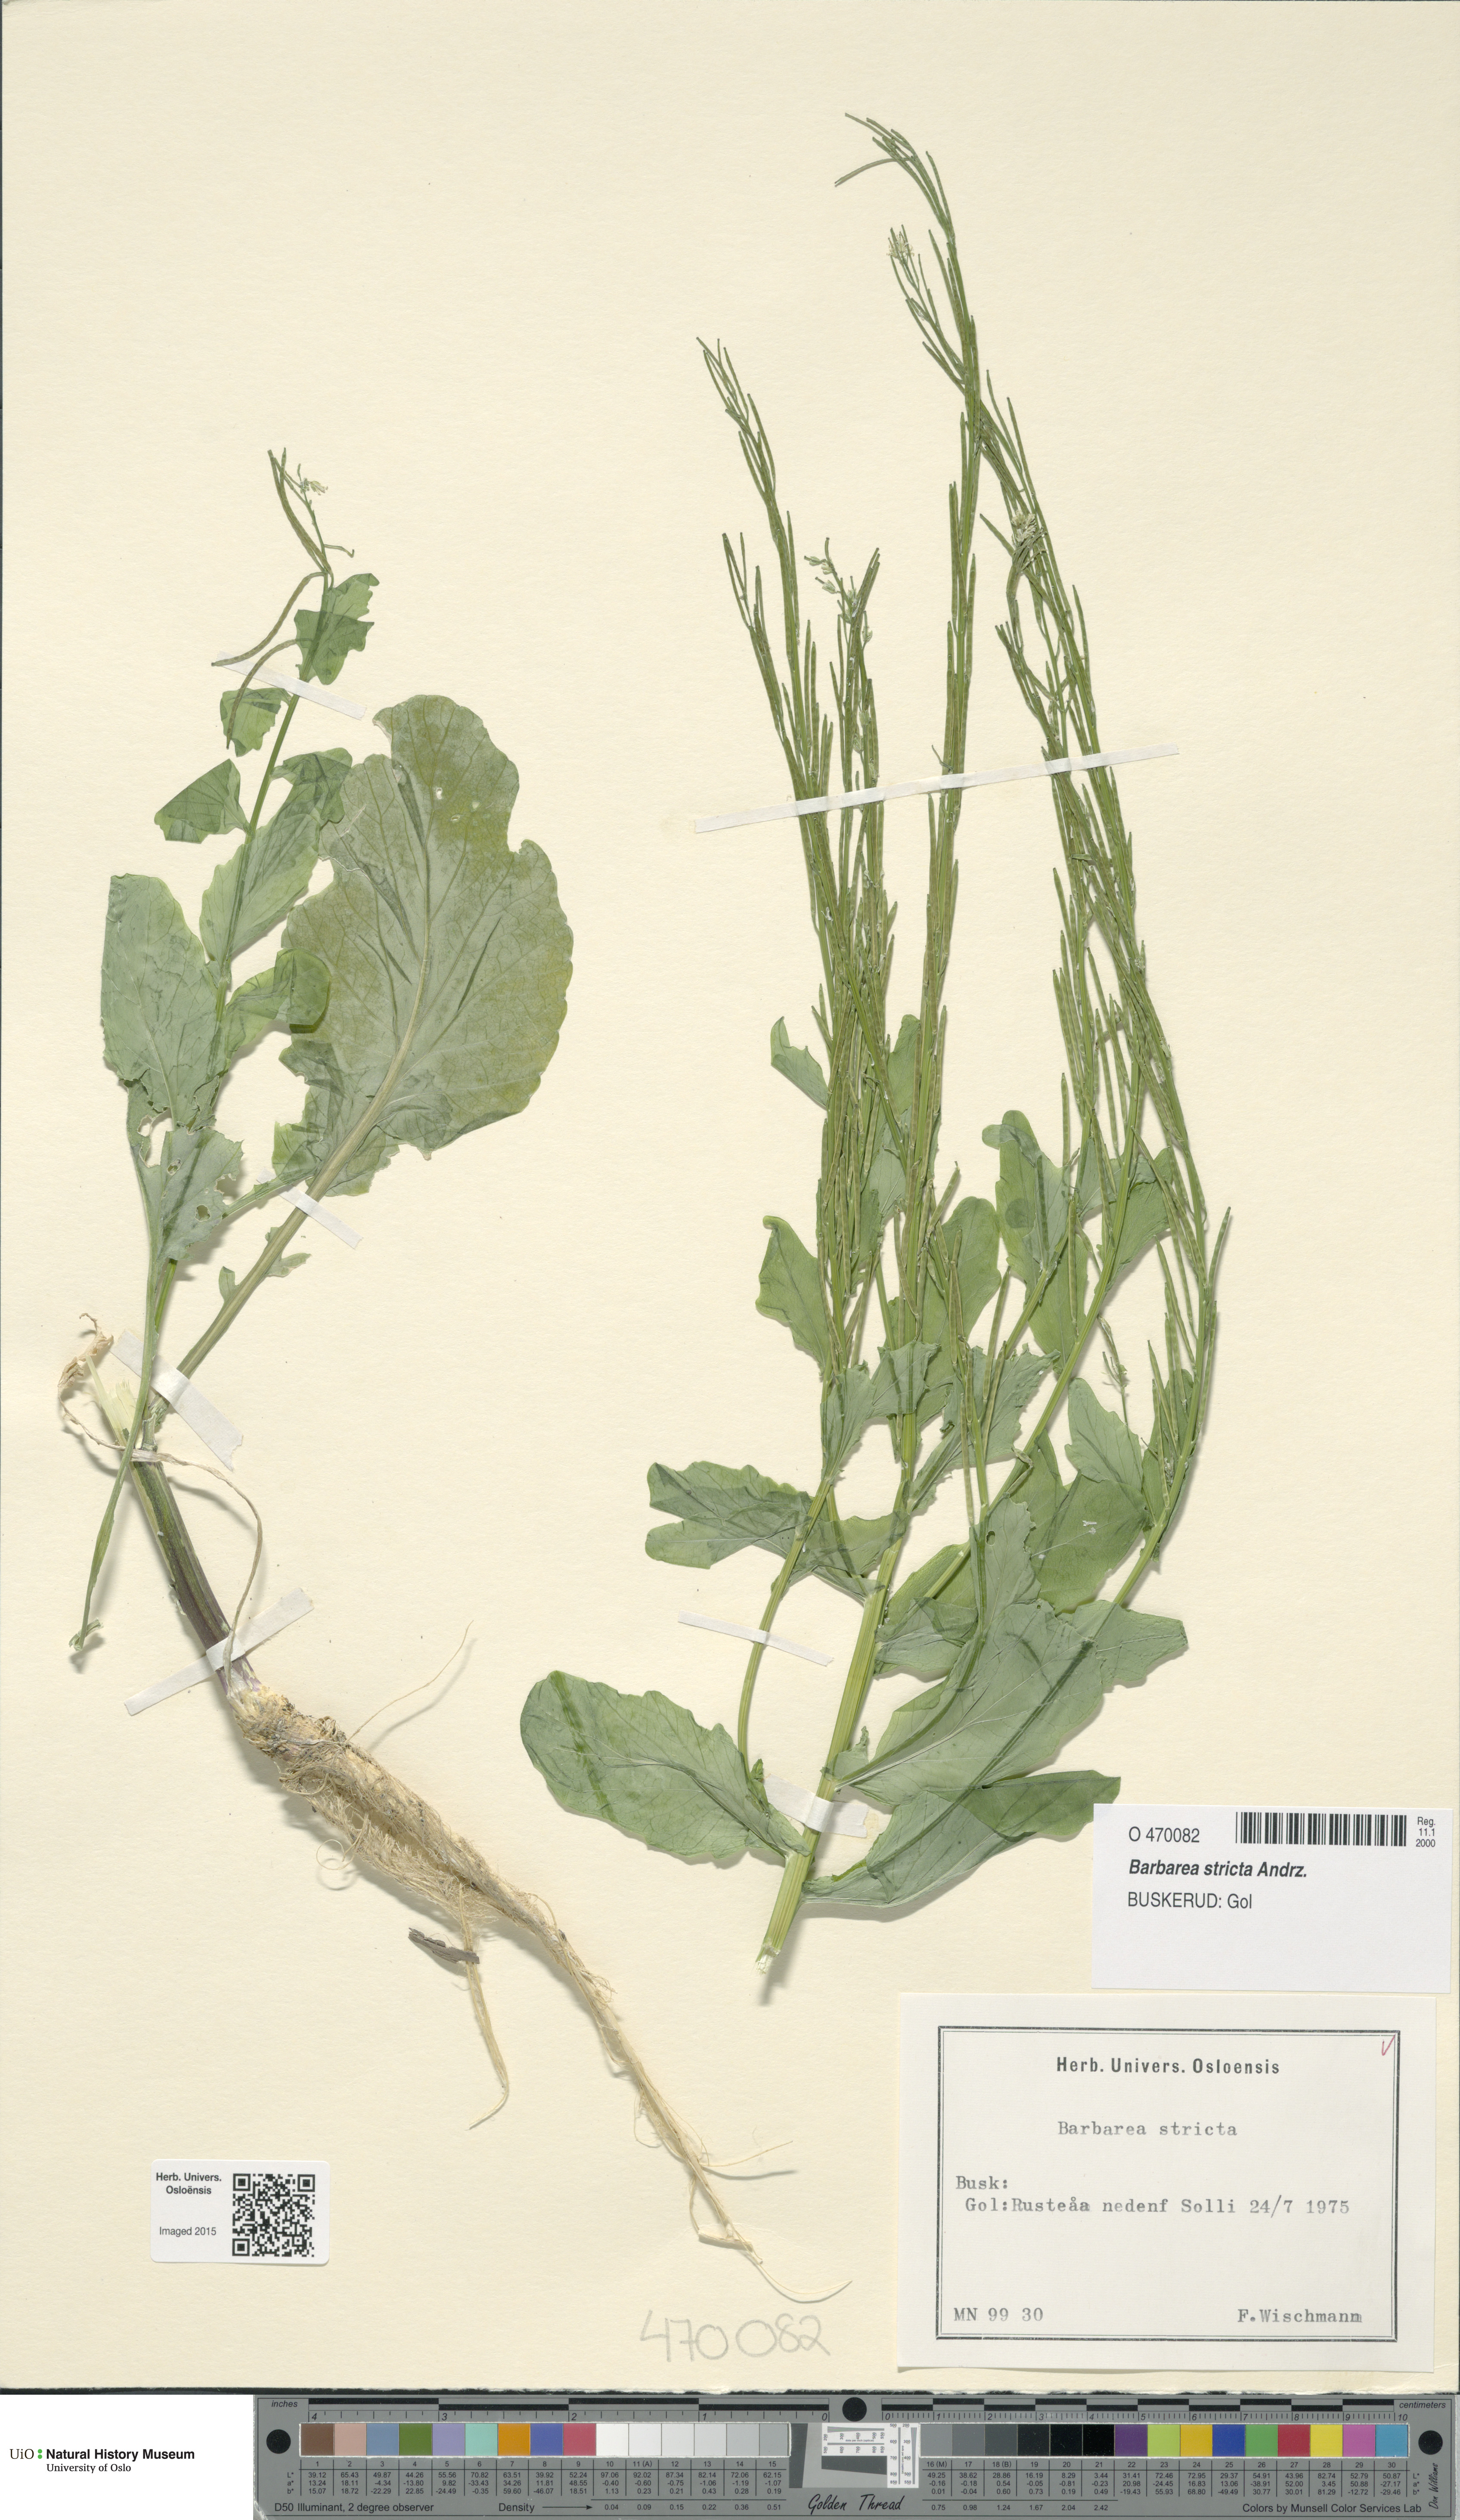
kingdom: Plantae
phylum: Tracheophyta
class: Magnoliopsida
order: Brassicales
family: Brassicaceae
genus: Barbarea
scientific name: Barbarea stricta
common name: Small-flowered winter-cress
